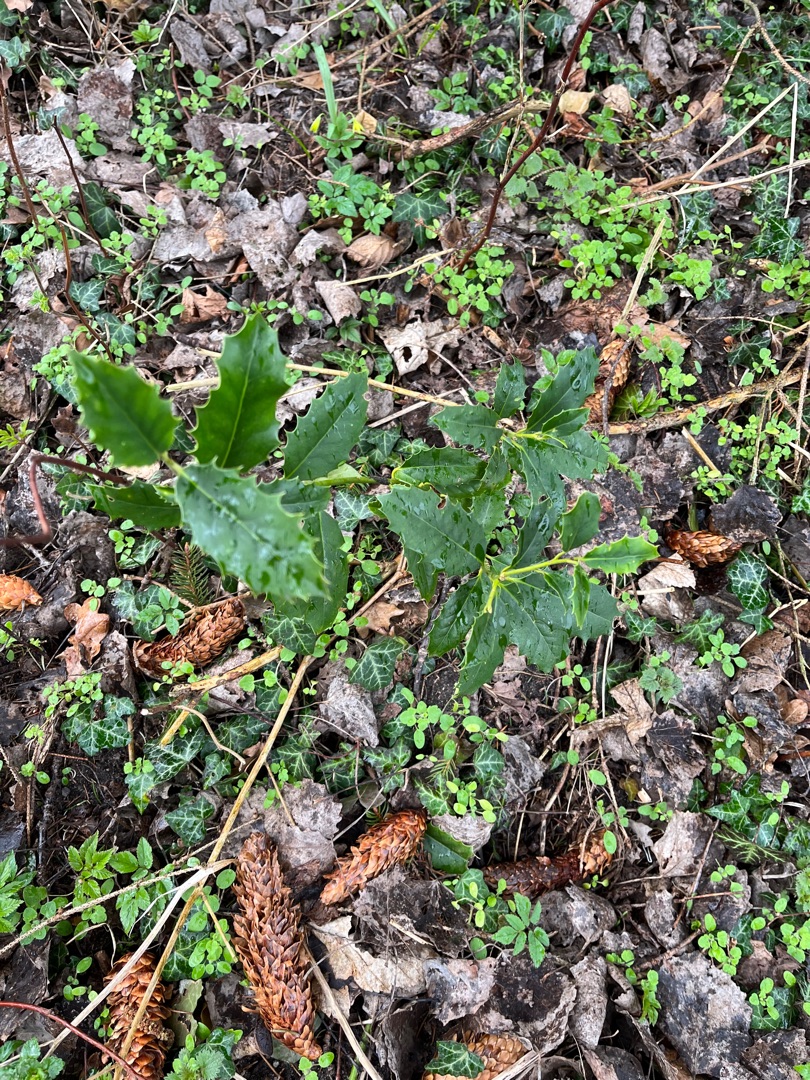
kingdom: Plantae
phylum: Tracheophyta
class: Magnoliopsida
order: Aquifoliales
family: Aquifoliaceae
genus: Ilex
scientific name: Ilex aquifolium
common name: Kristtorn
